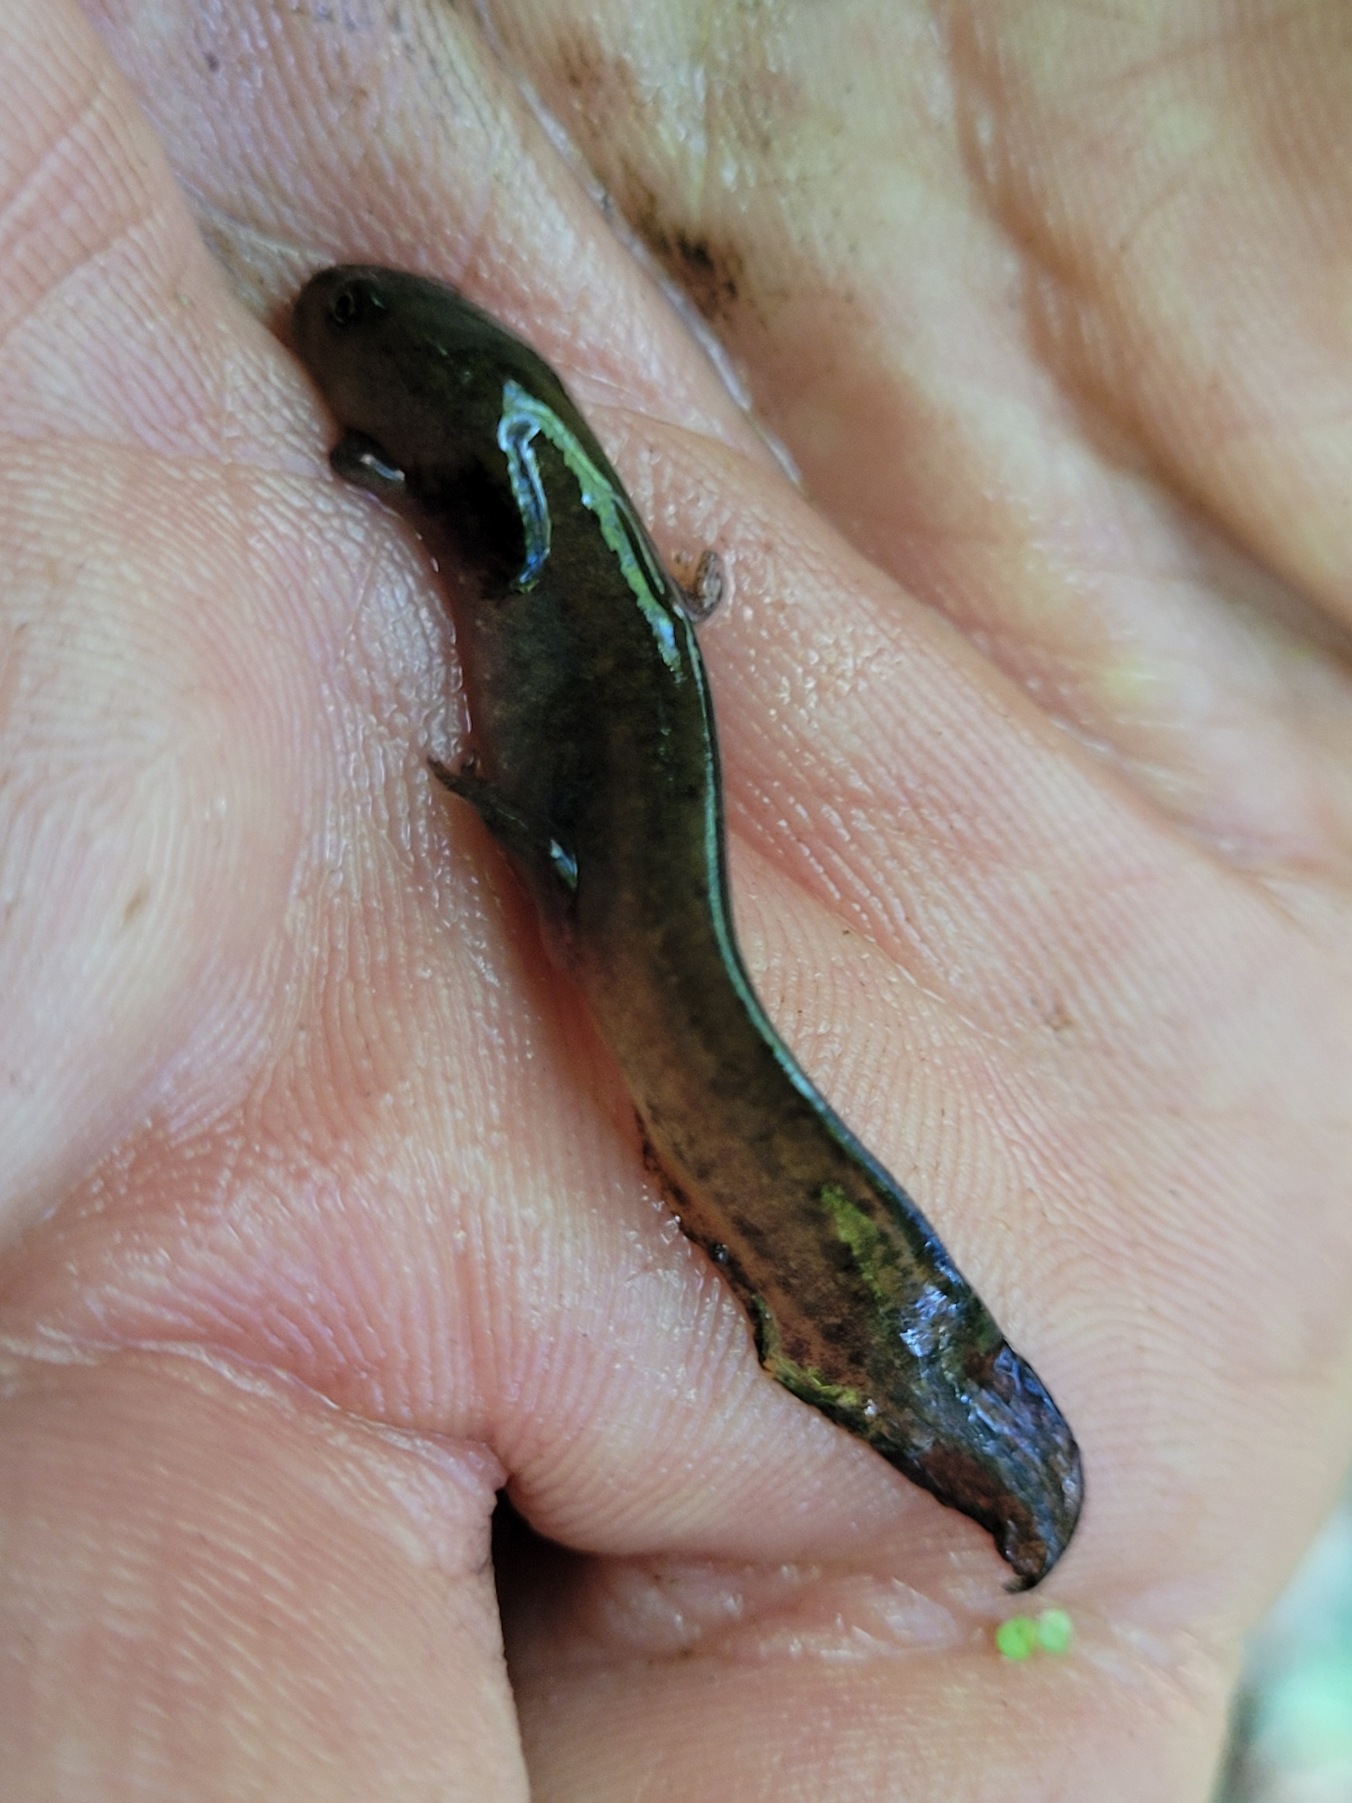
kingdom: Animalia
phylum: Chordata
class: Amphibia
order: Caudata
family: Salamandridae
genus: Ichthyosaura
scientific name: Ichthyosaura alpestris
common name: Bjergsalamander
